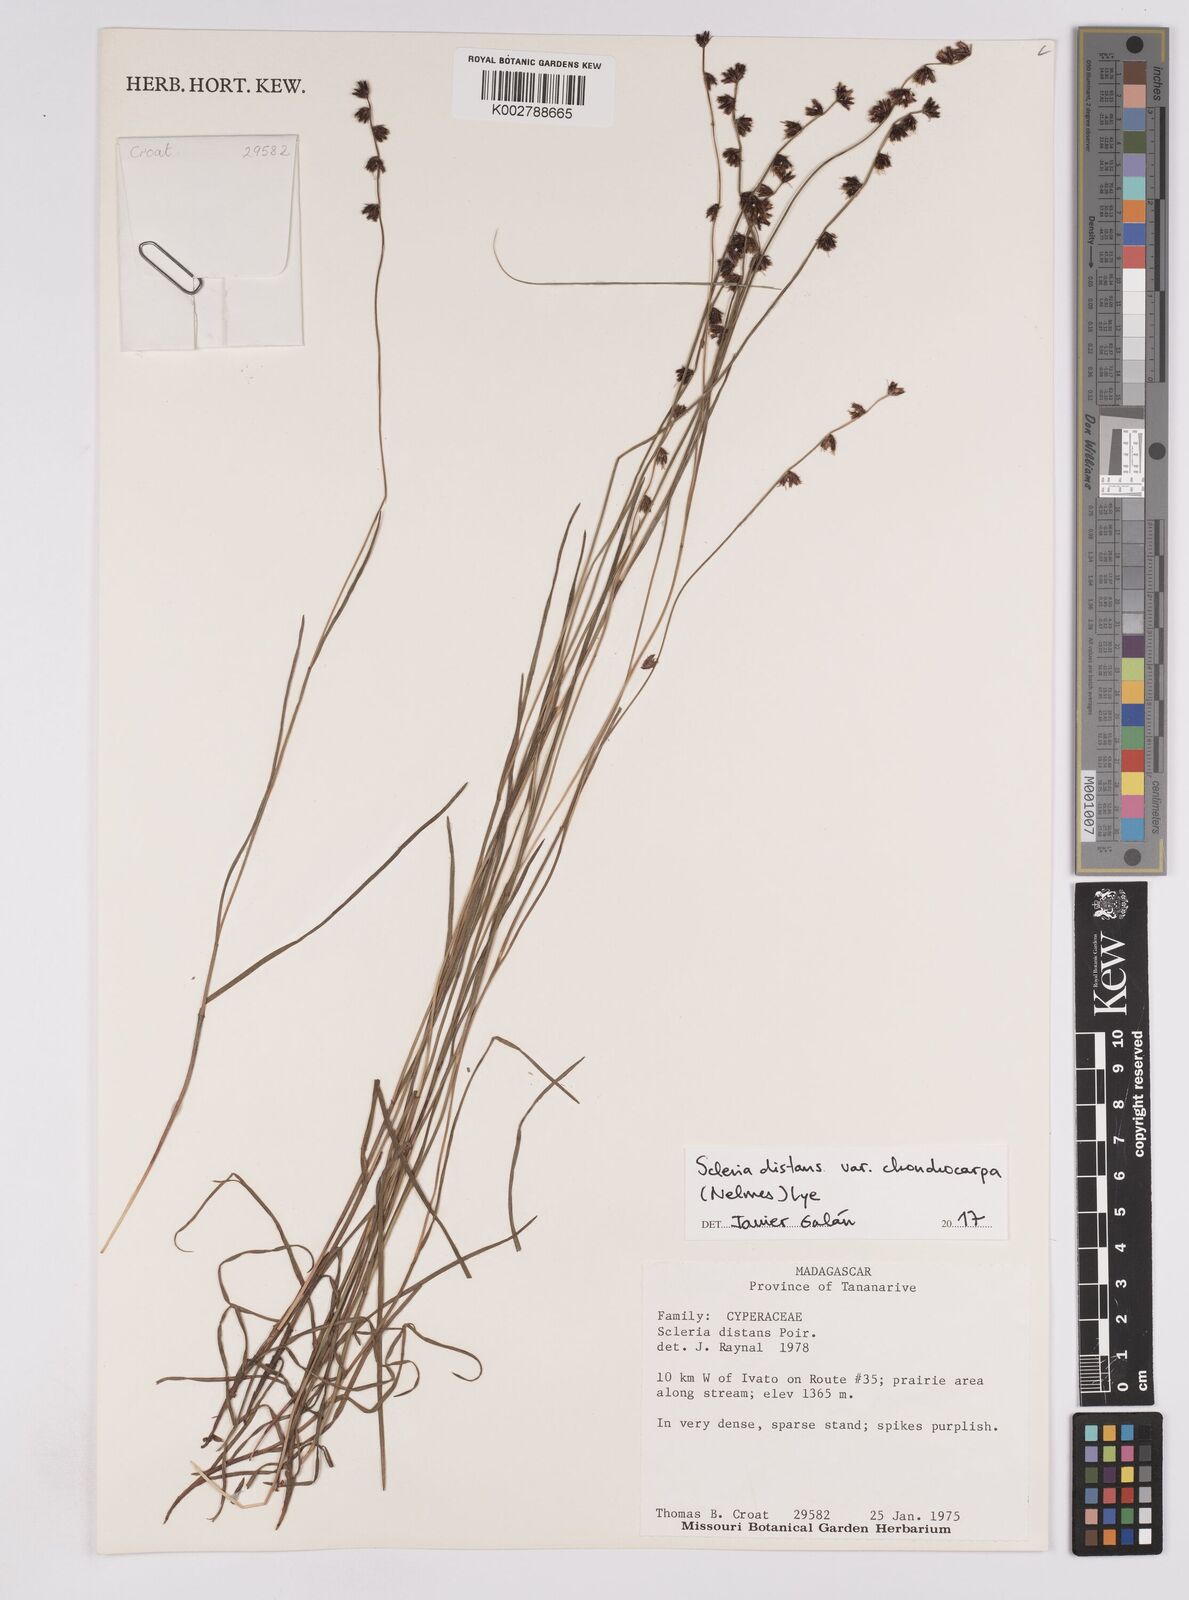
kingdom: Plantae
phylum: Tracheophyta
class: Liliopsida
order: Poales
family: Cyperaceae
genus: Scleria
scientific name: Scleria distans
